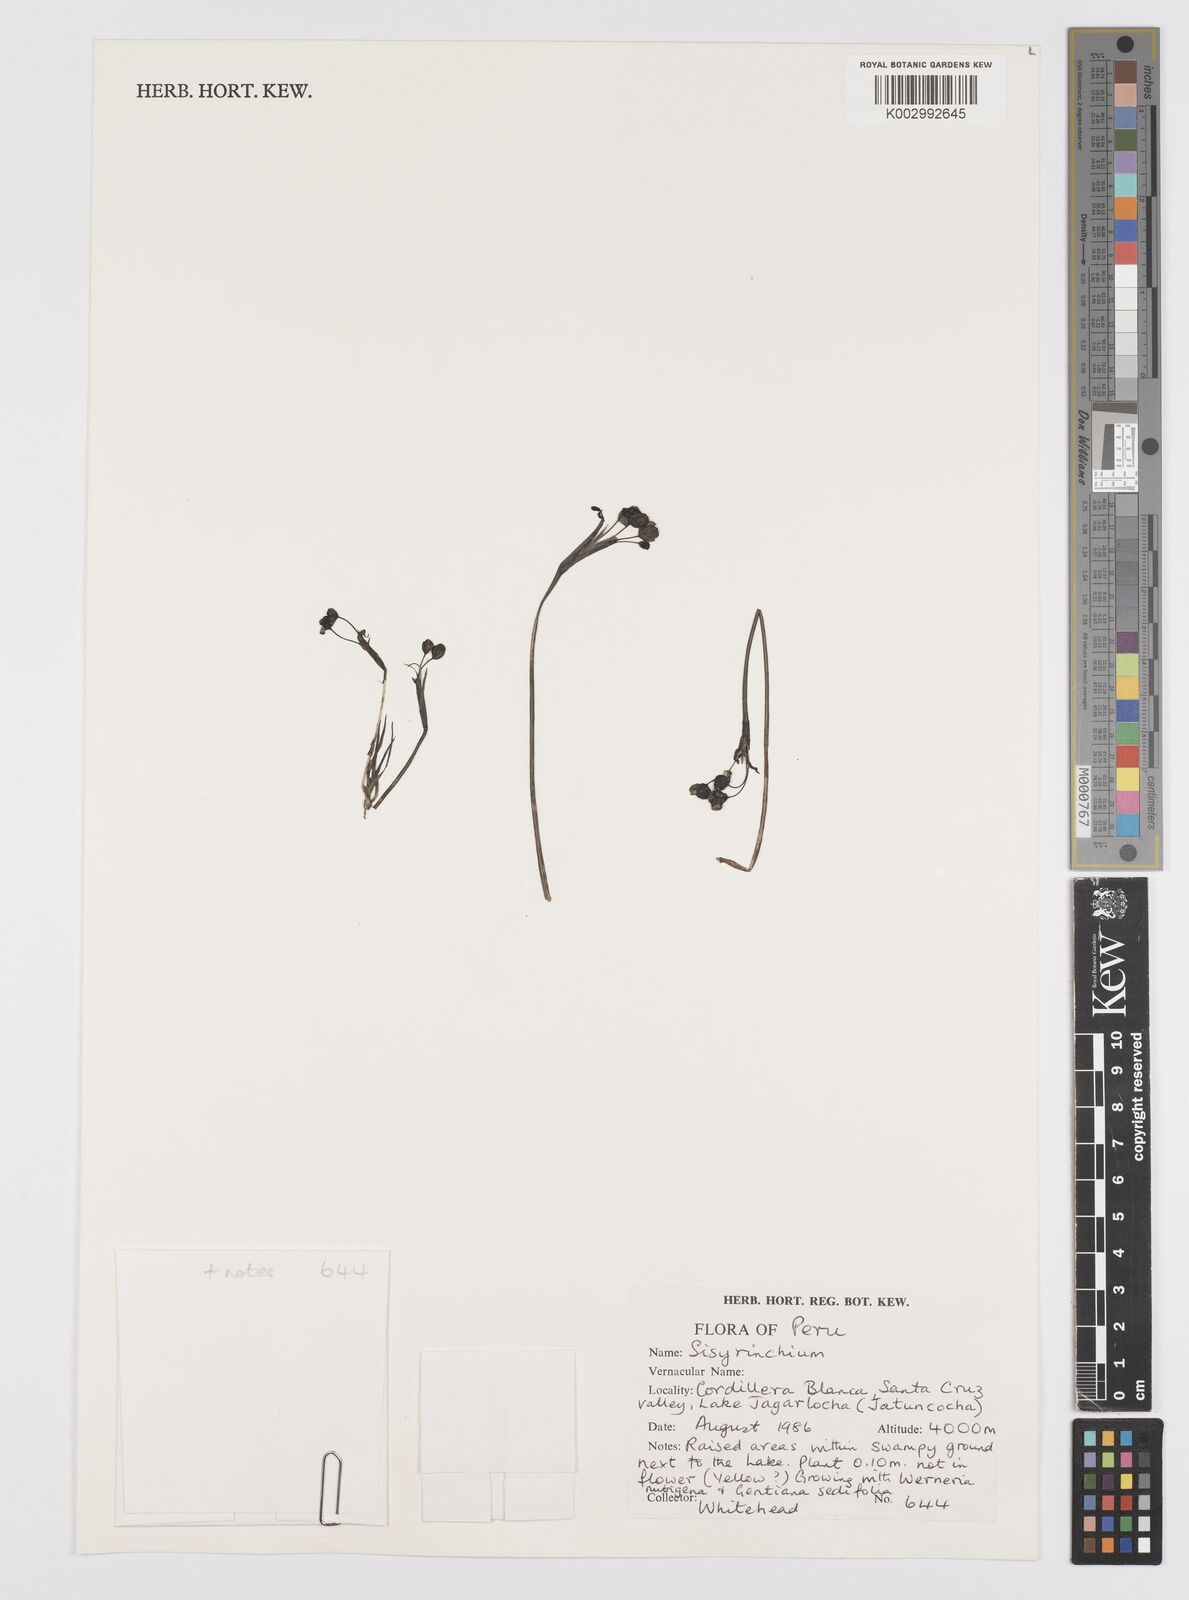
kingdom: Plantae
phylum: Tracheophyta
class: Liliopsida
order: Asparagales
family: Iridaceae
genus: Sisyrinchium
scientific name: Sisyrinchium
